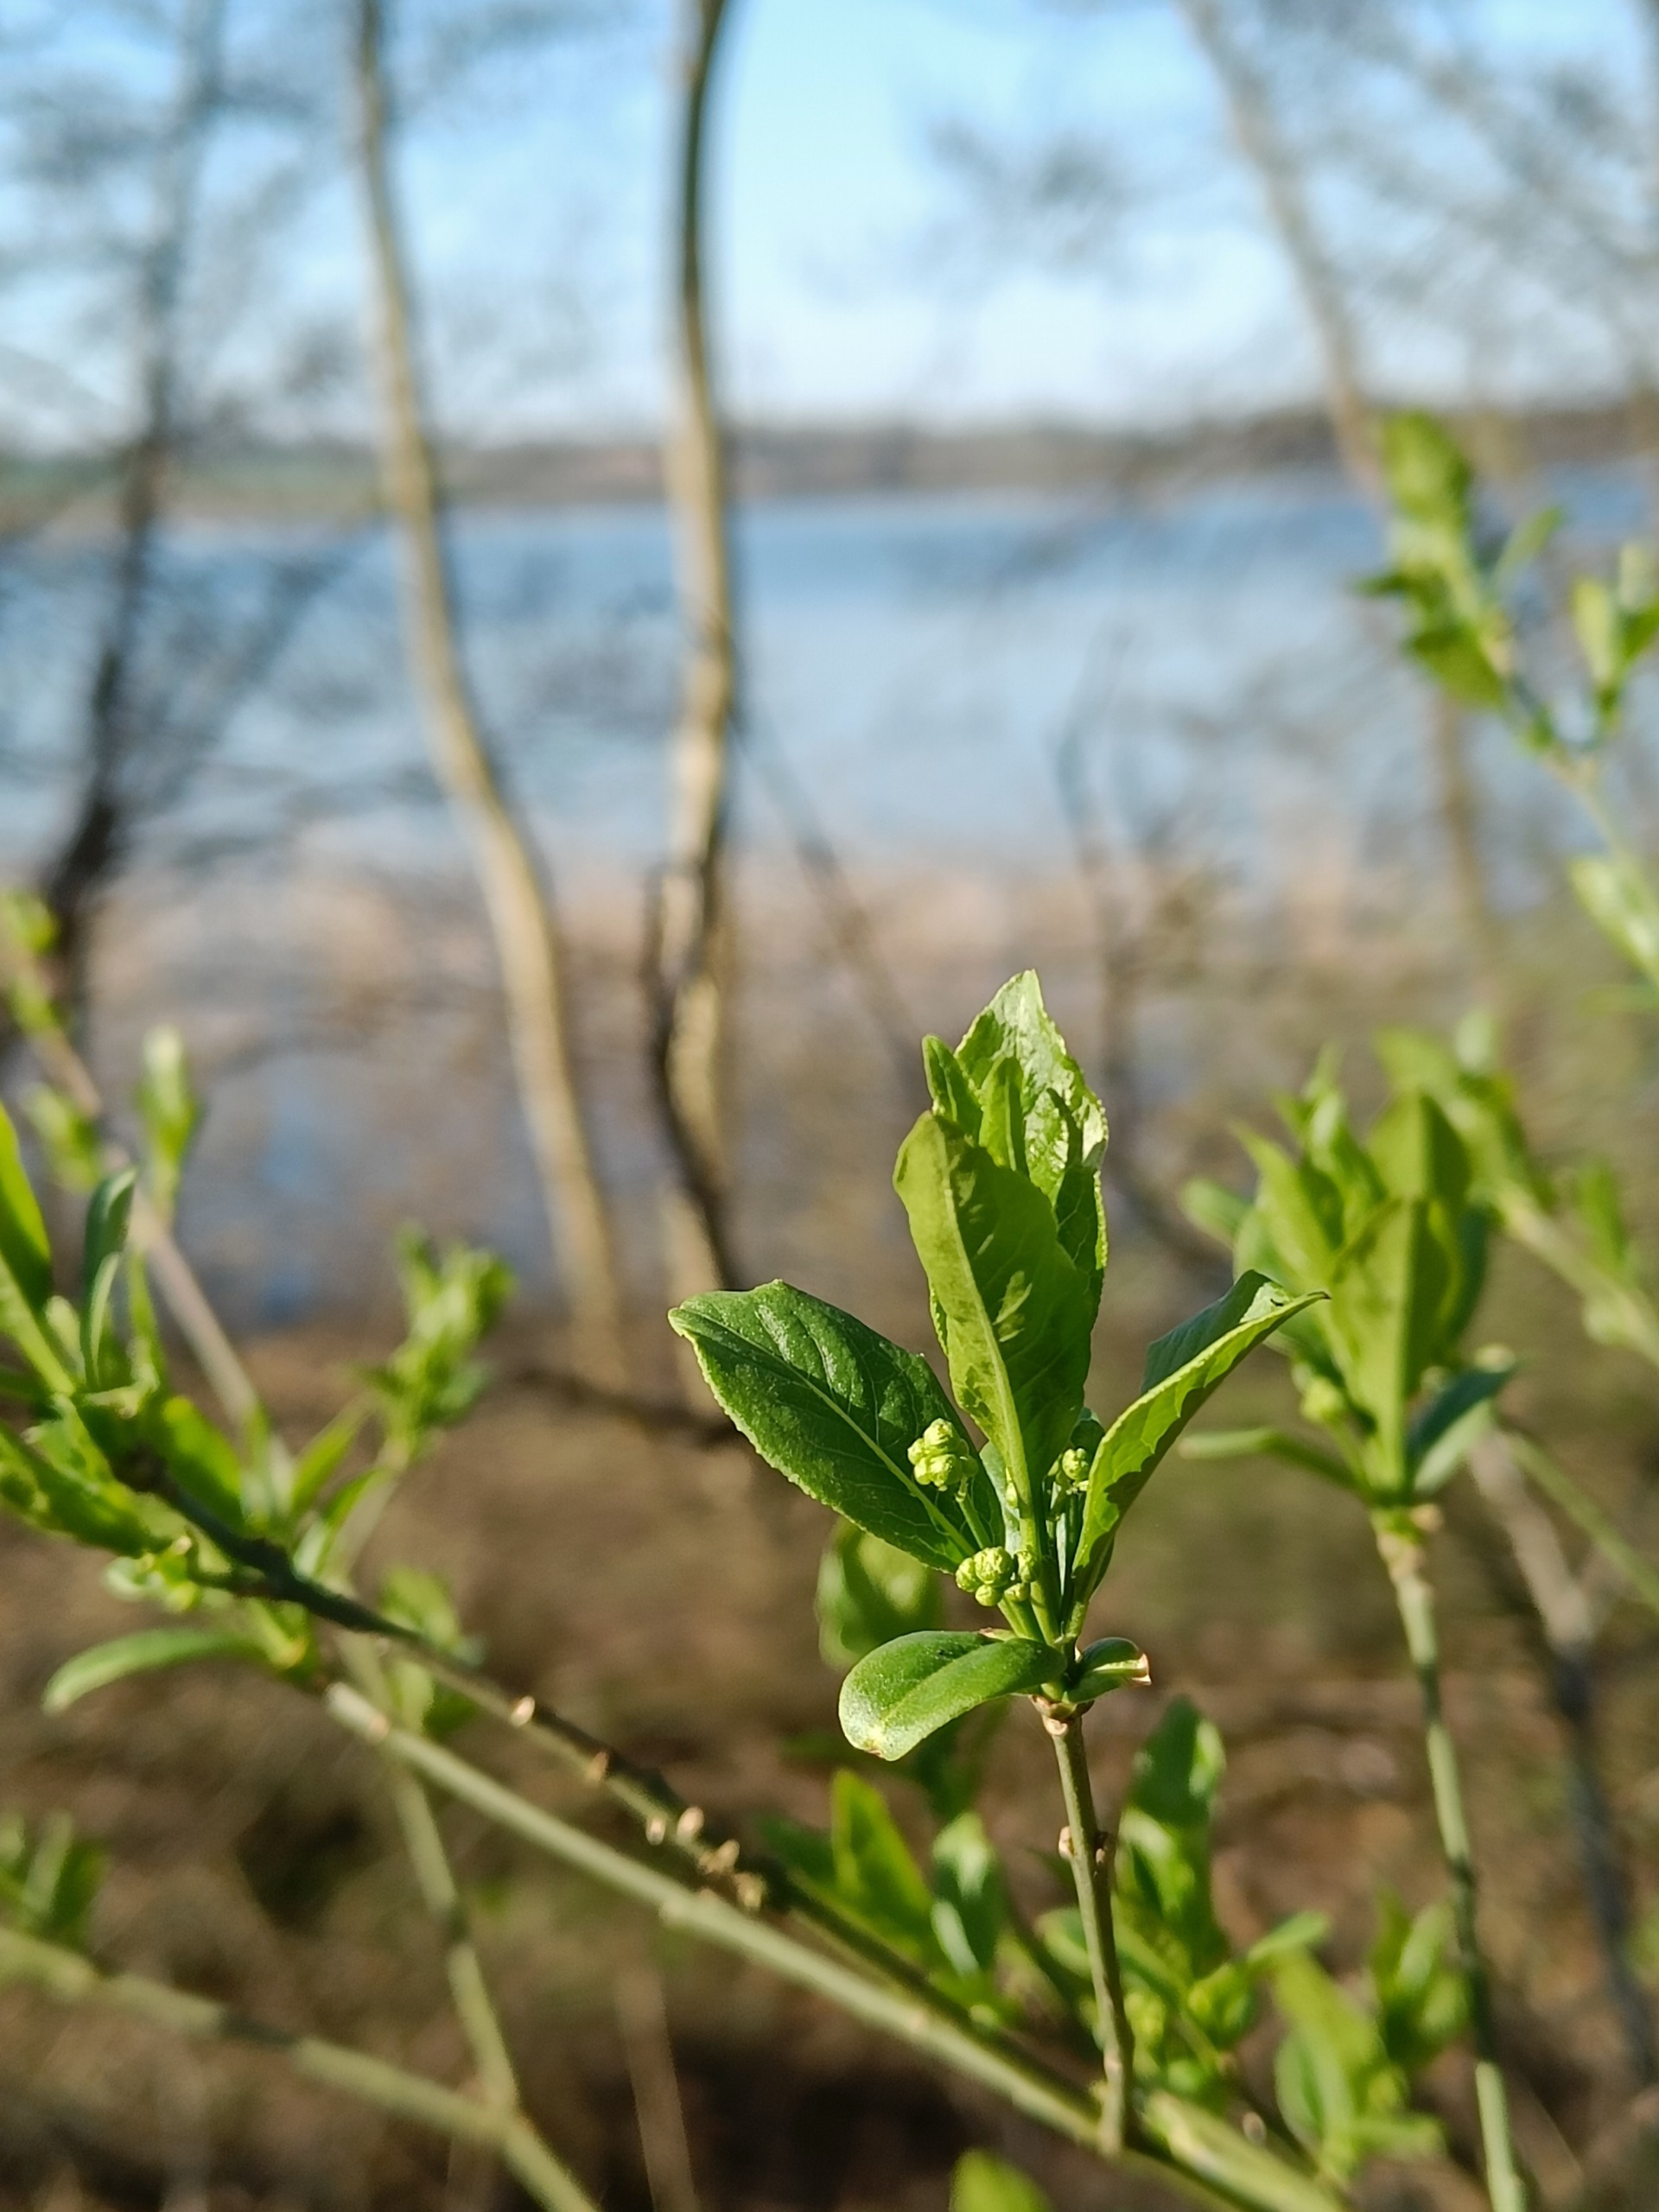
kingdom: Plantae
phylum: Tracheophyta
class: Magnoliopsida
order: Celastrales
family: Celastraceae
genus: Euonymus
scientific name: Euonymus europaeus
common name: Benved
